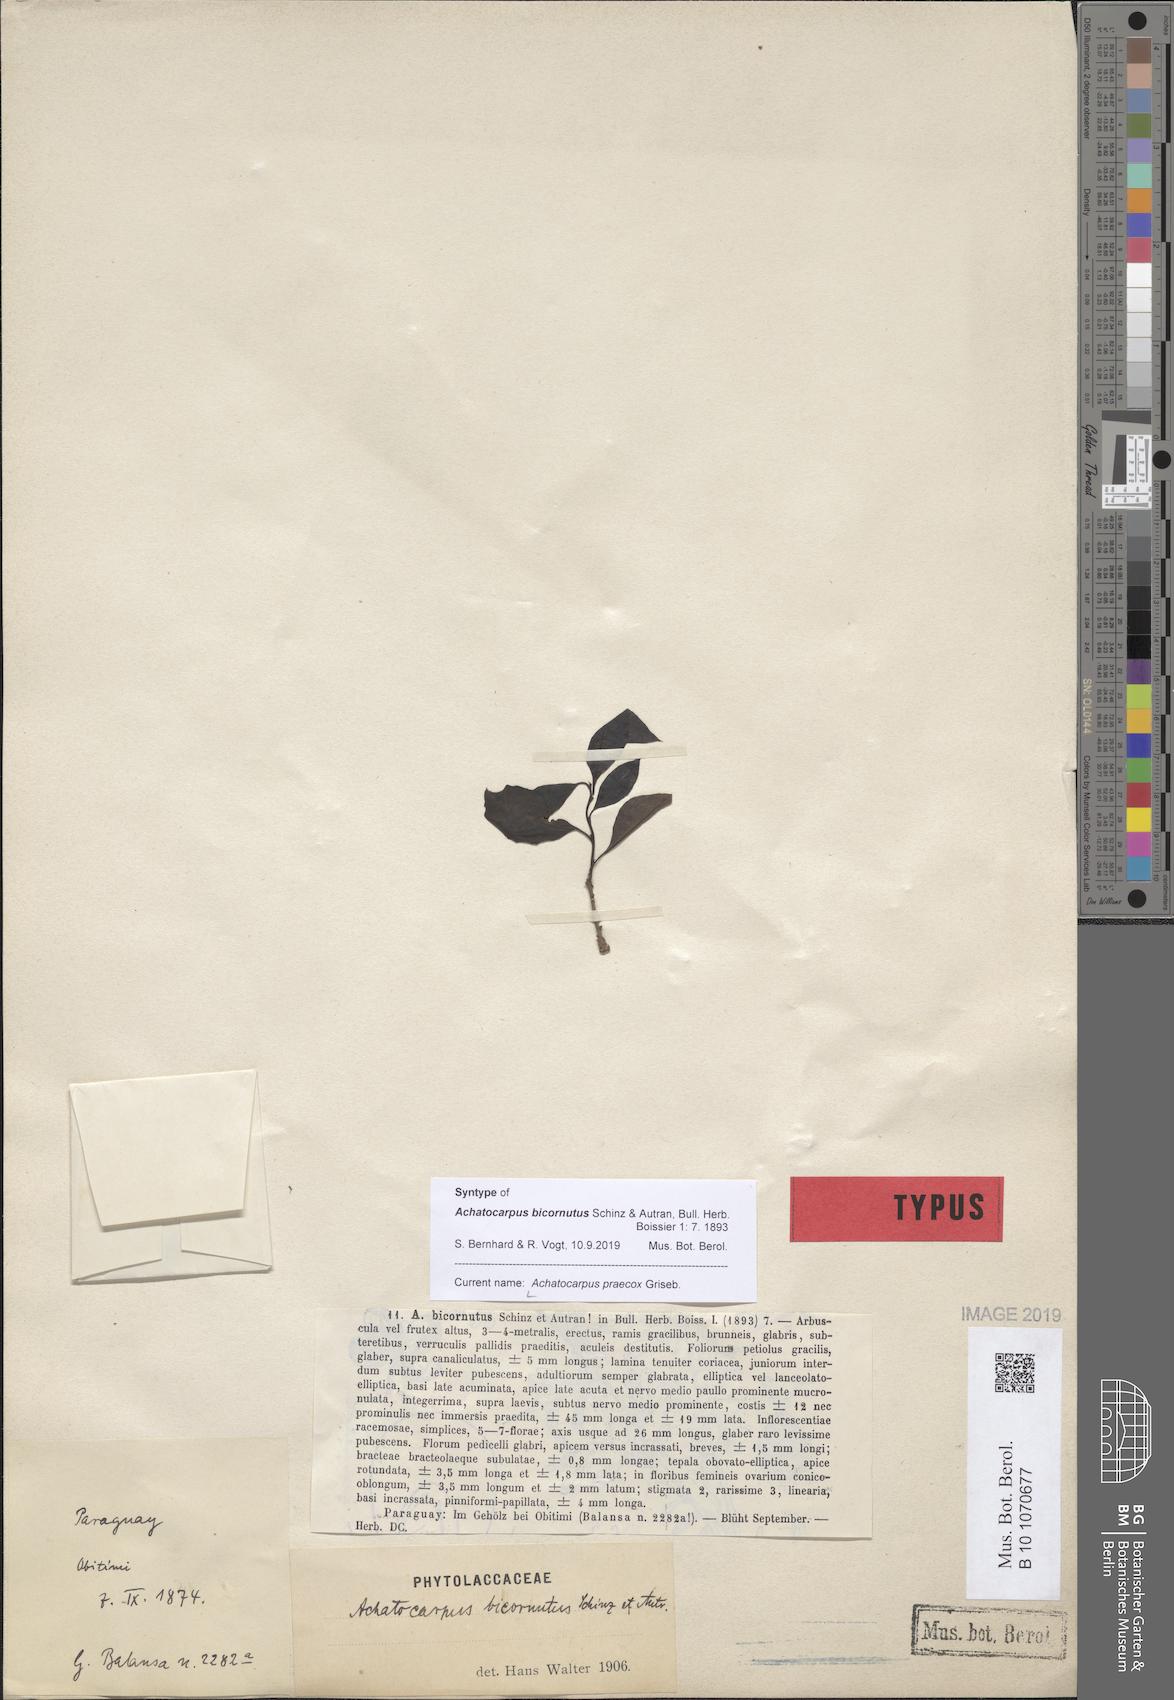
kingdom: Plantae
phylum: Tracheophyta
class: Magnoliopsida
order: Caryophyllales
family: Achatocarpaceae
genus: Achatocarpus
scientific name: Achatocarpus praecox
